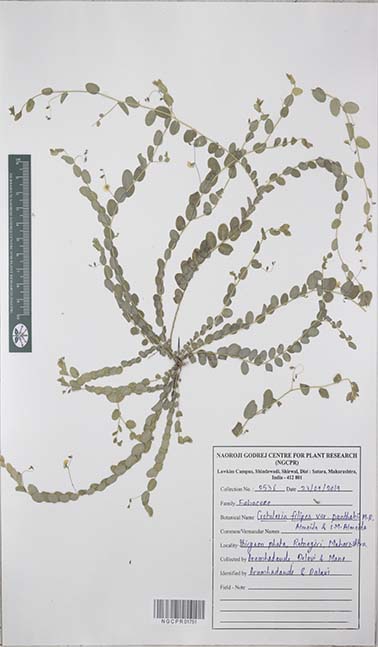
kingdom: Plantae
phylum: Tracheophyta
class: Magnoliopsida
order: Fabales
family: Fabaceae
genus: Crotalaria
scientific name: Crotalaria filipes
